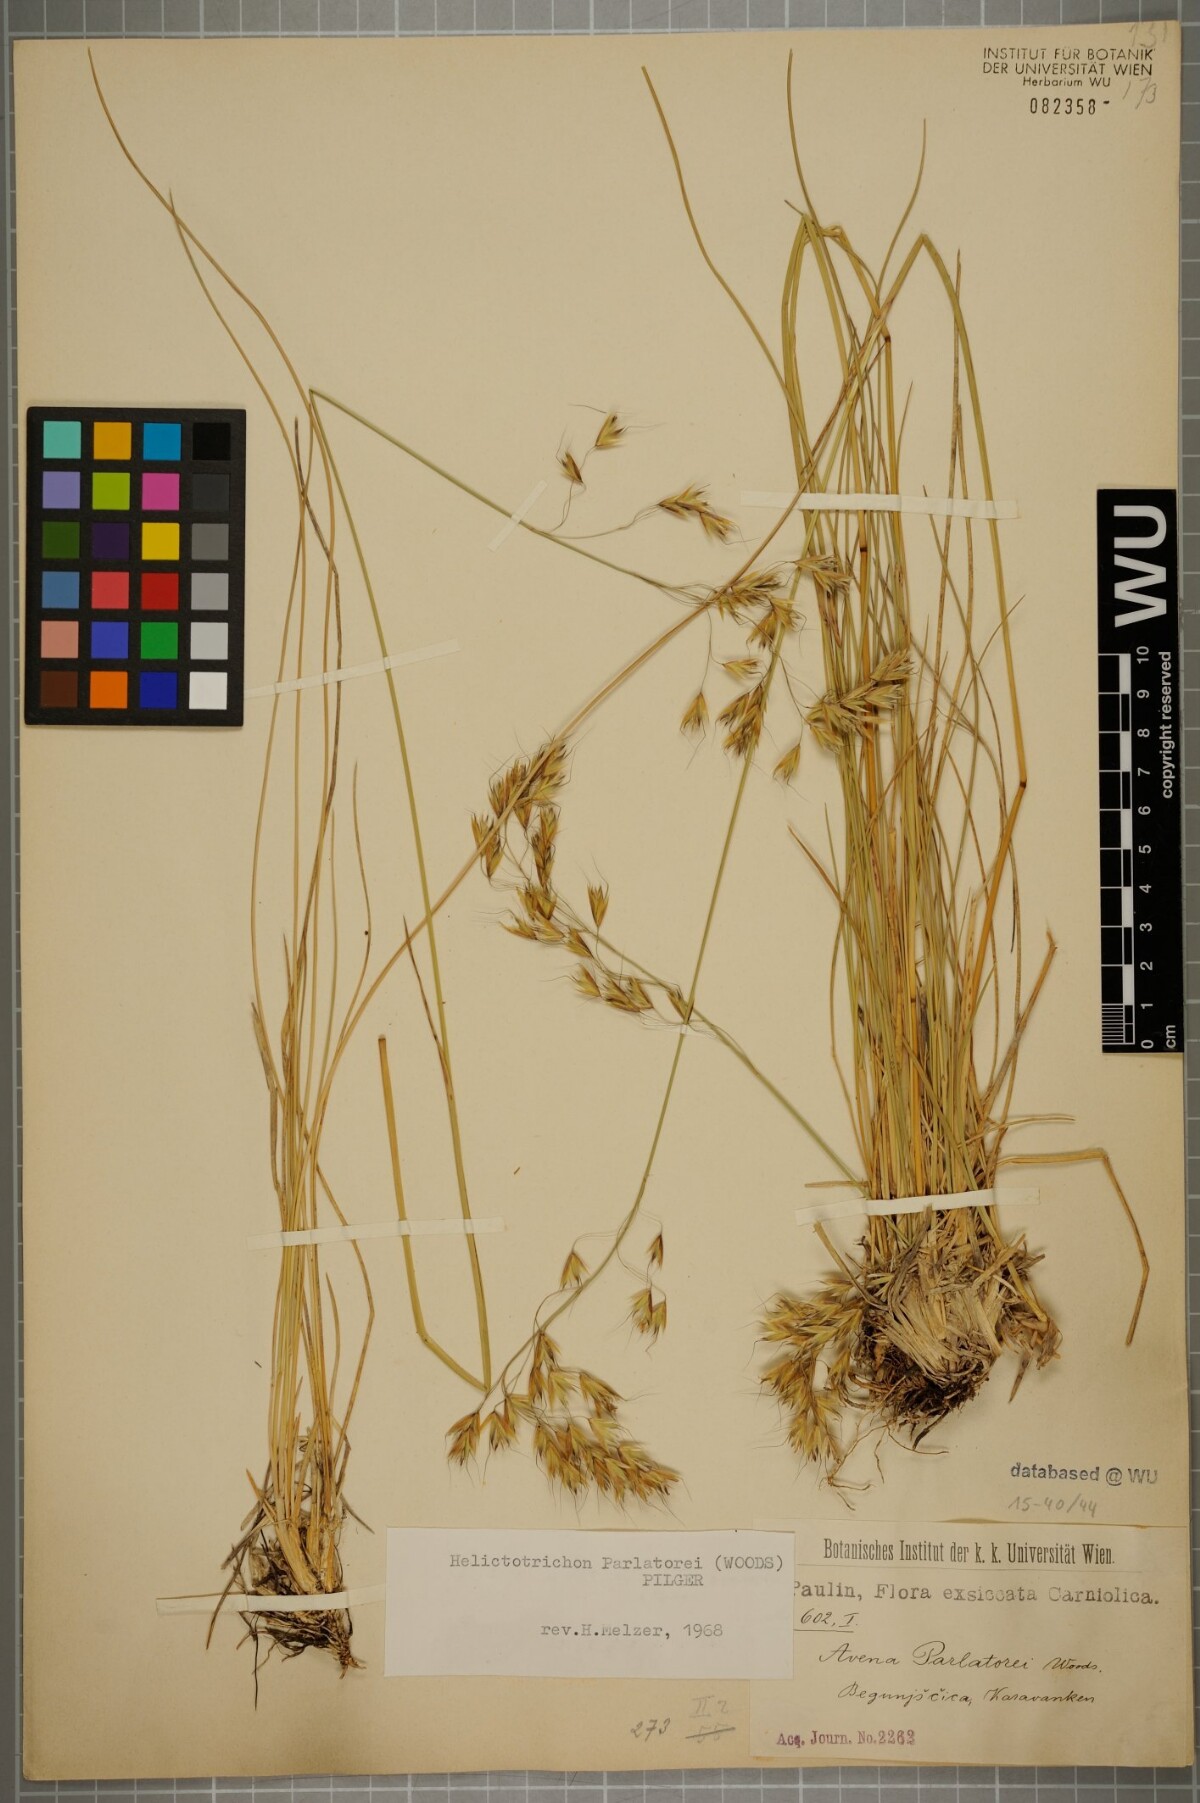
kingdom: Plantae
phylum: Tracheophyta
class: Liliopsida
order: Poales
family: Poaceae
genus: Helictotrichon
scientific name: Helictotrichon parlatorei
